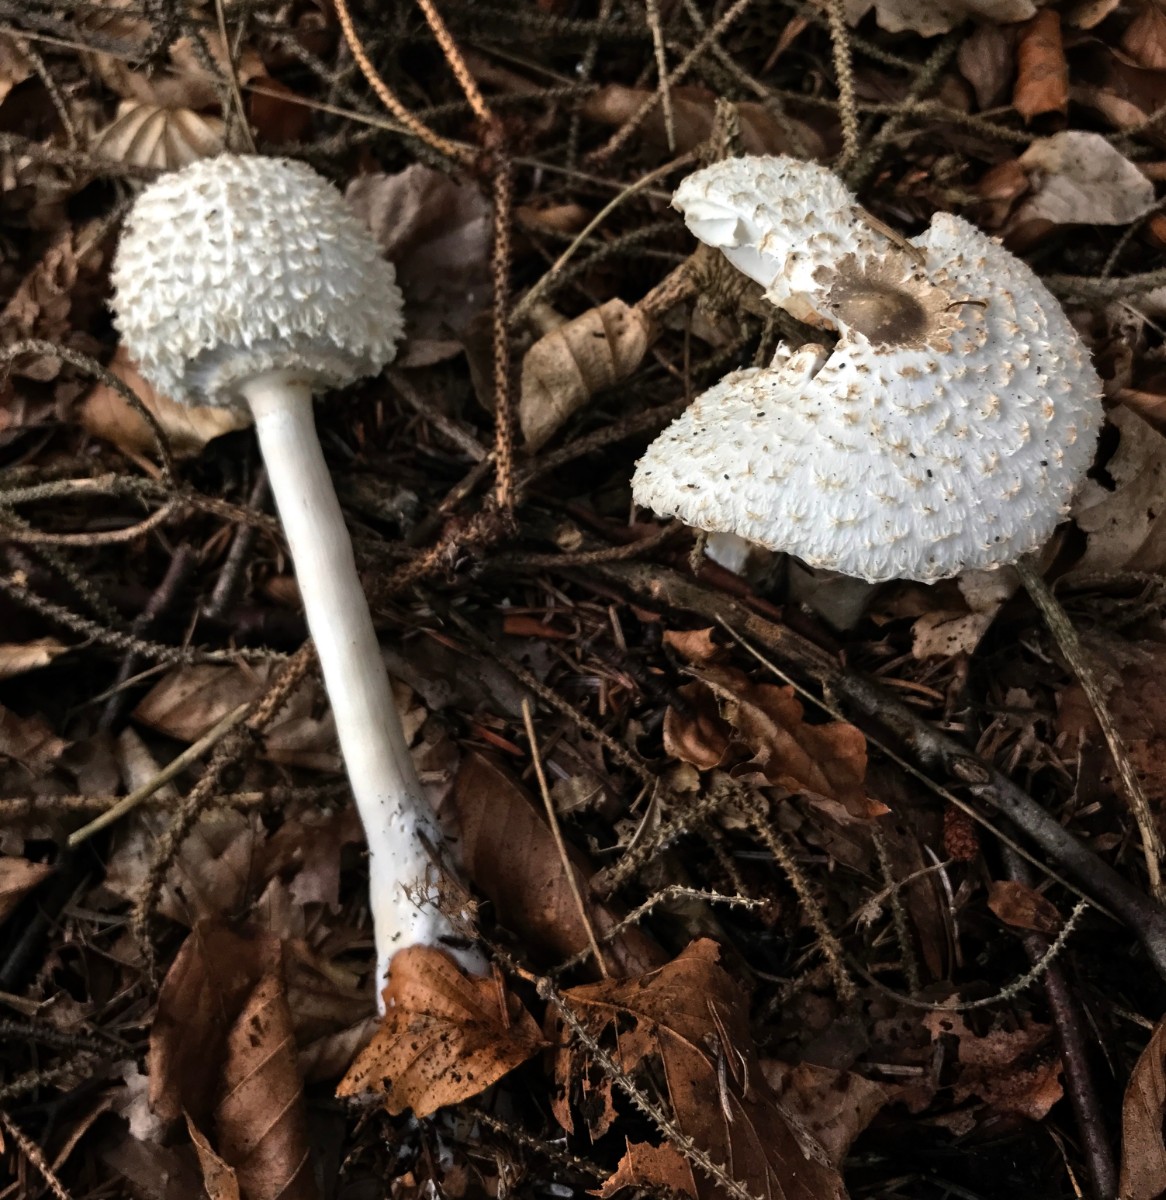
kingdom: Fungi
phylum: Basidiomycota
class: Agaricomycetes
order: Agaricales
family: Agaricaceae
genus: Leucoagaricus
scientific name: Leucoagaricus nympharum
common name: gran-silkehat
